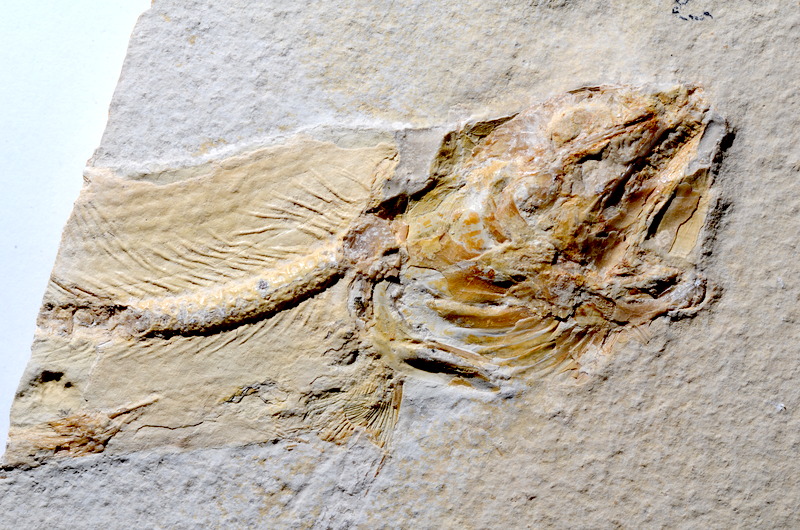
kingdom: Animalia
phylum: Chordata
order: Amiiformes
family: Amiidae
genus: Amiopsis
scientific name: Amiopsis lepidota
